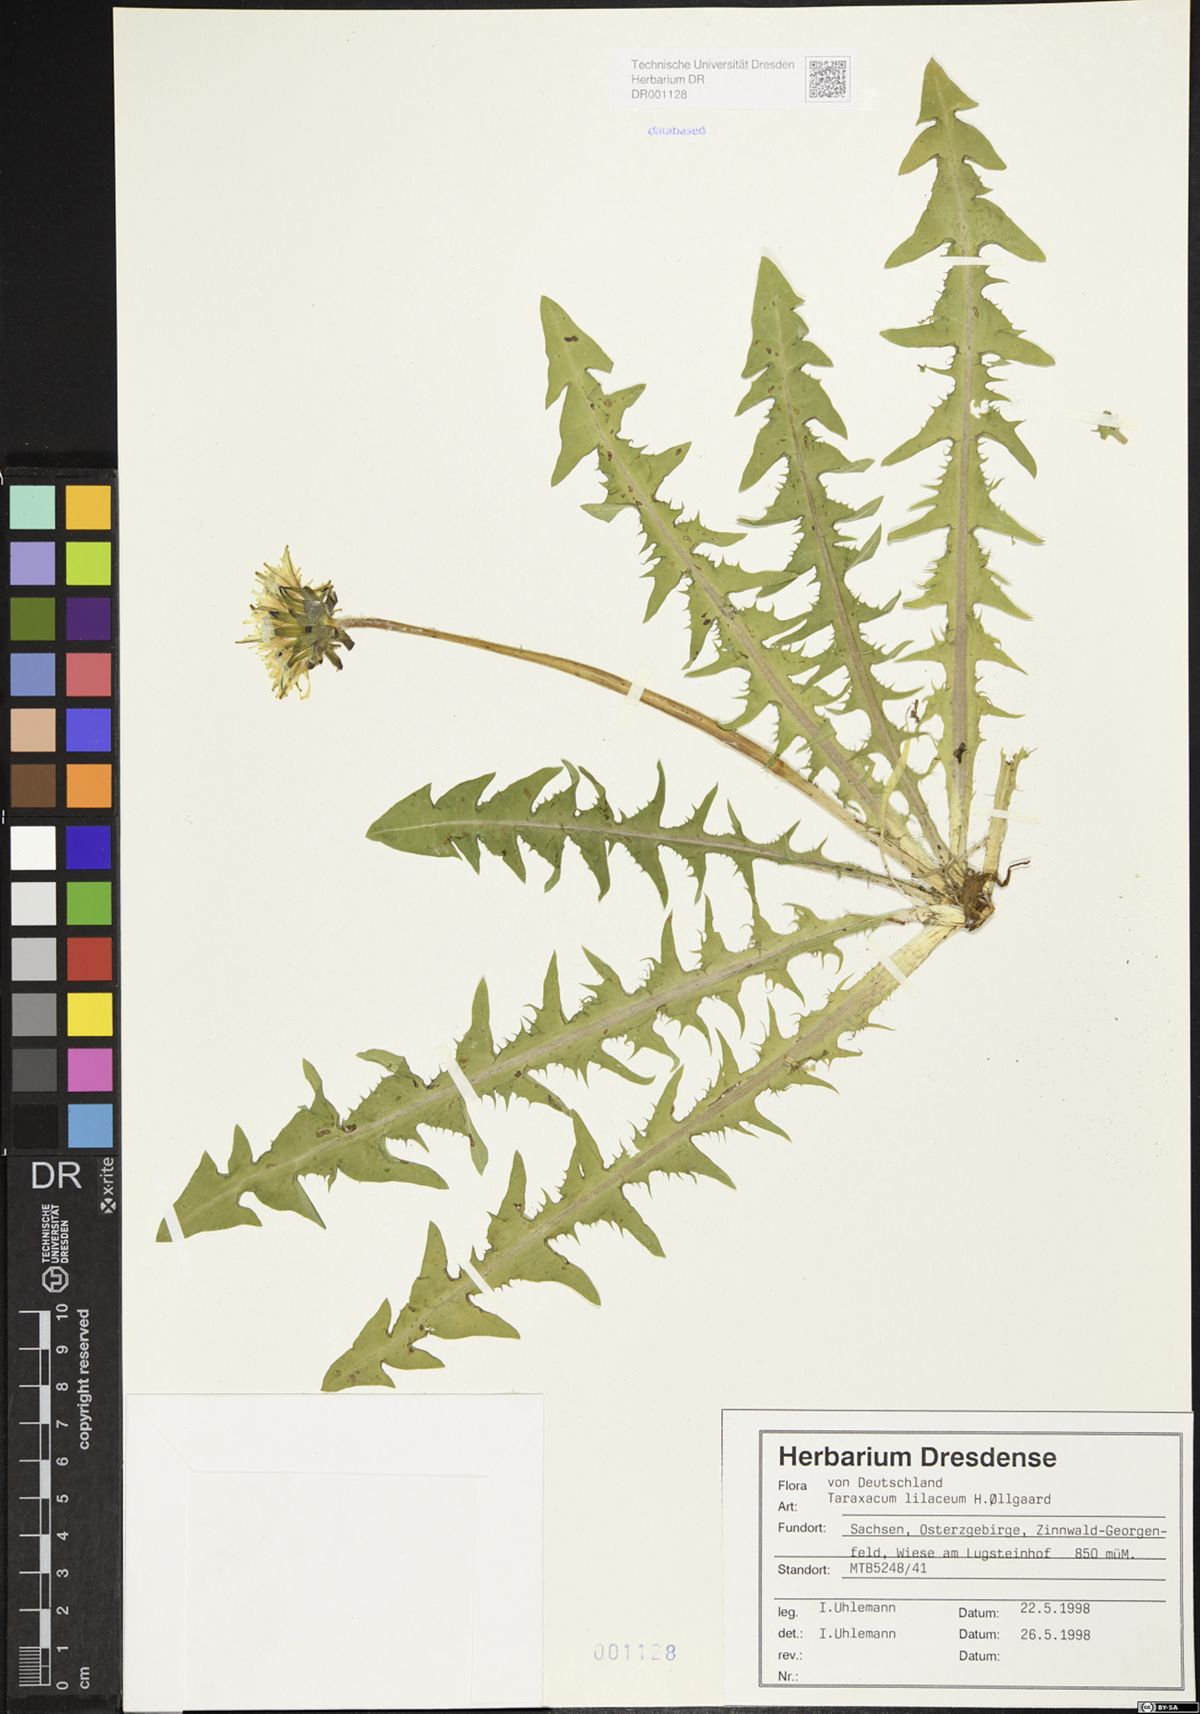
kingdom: Plantae
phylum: Tracheophyta
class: Magnoliopsida
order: Asterales
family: Asteraceae
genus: Taraxacum
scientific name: Taraxacum floccosum
